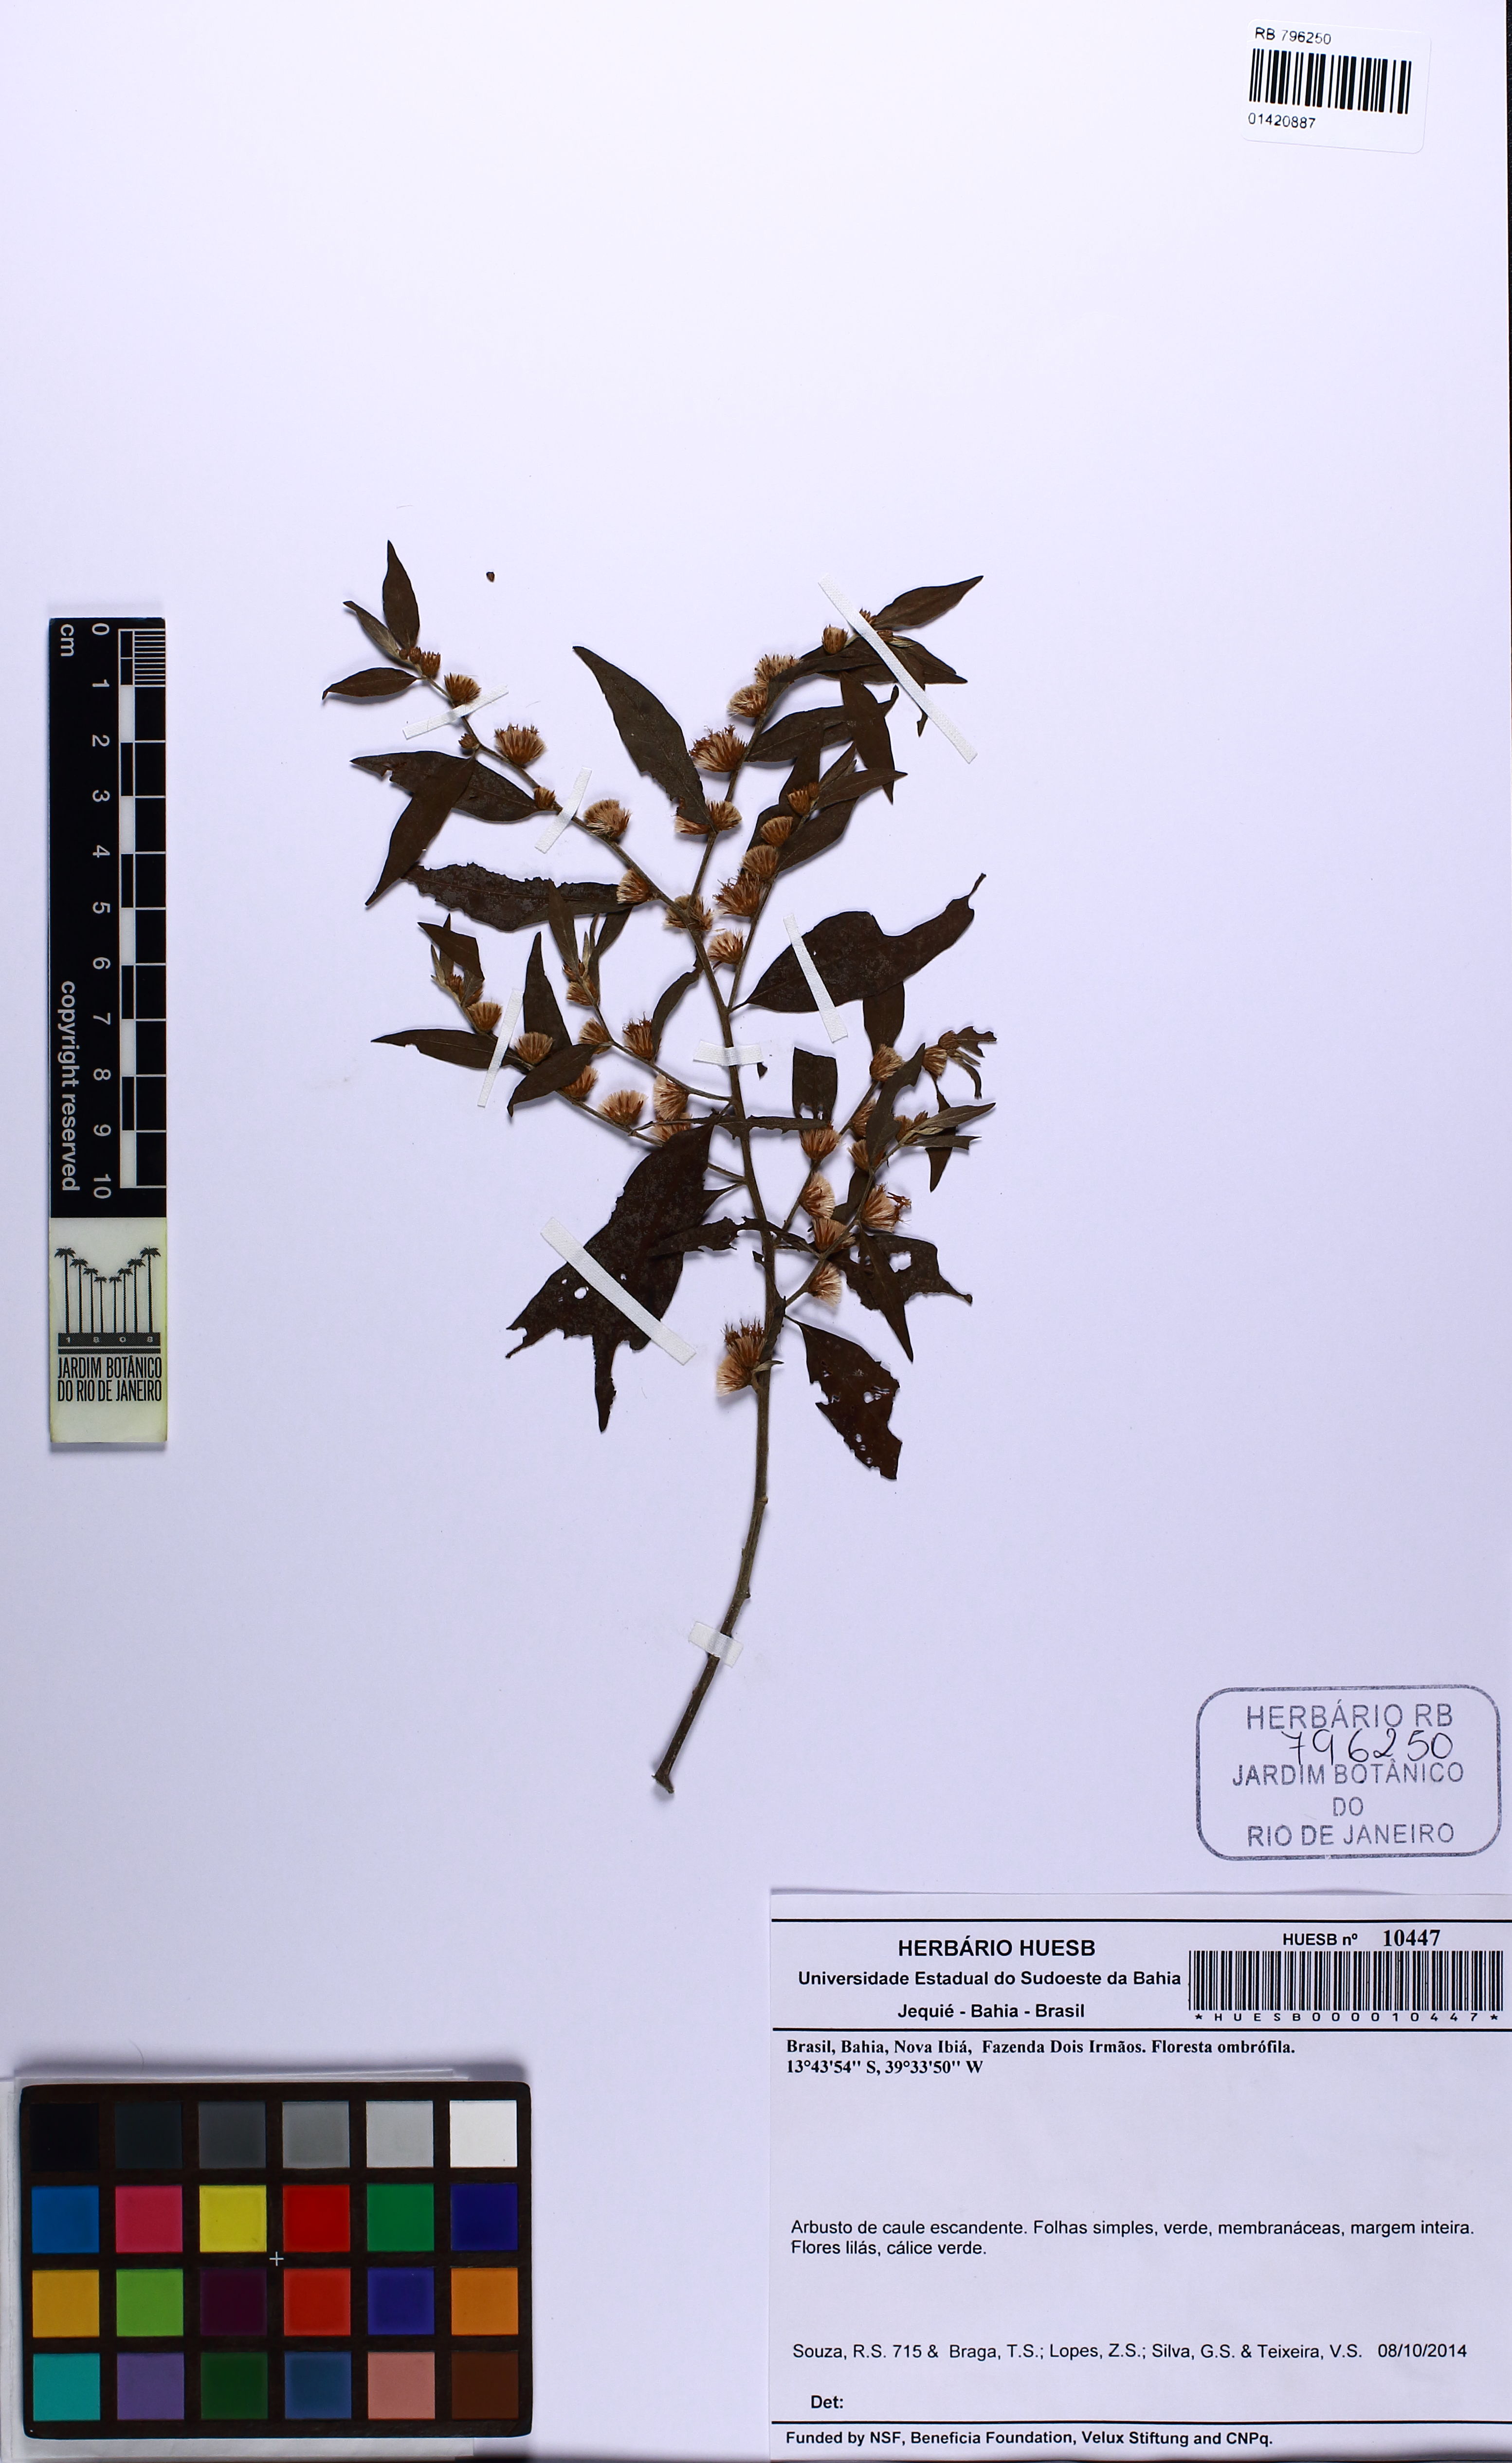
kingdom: Plantae
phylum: Tracheophyta
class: Magnoliopsida
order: Asterales
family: Asteraceae
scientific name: Asteraceae
